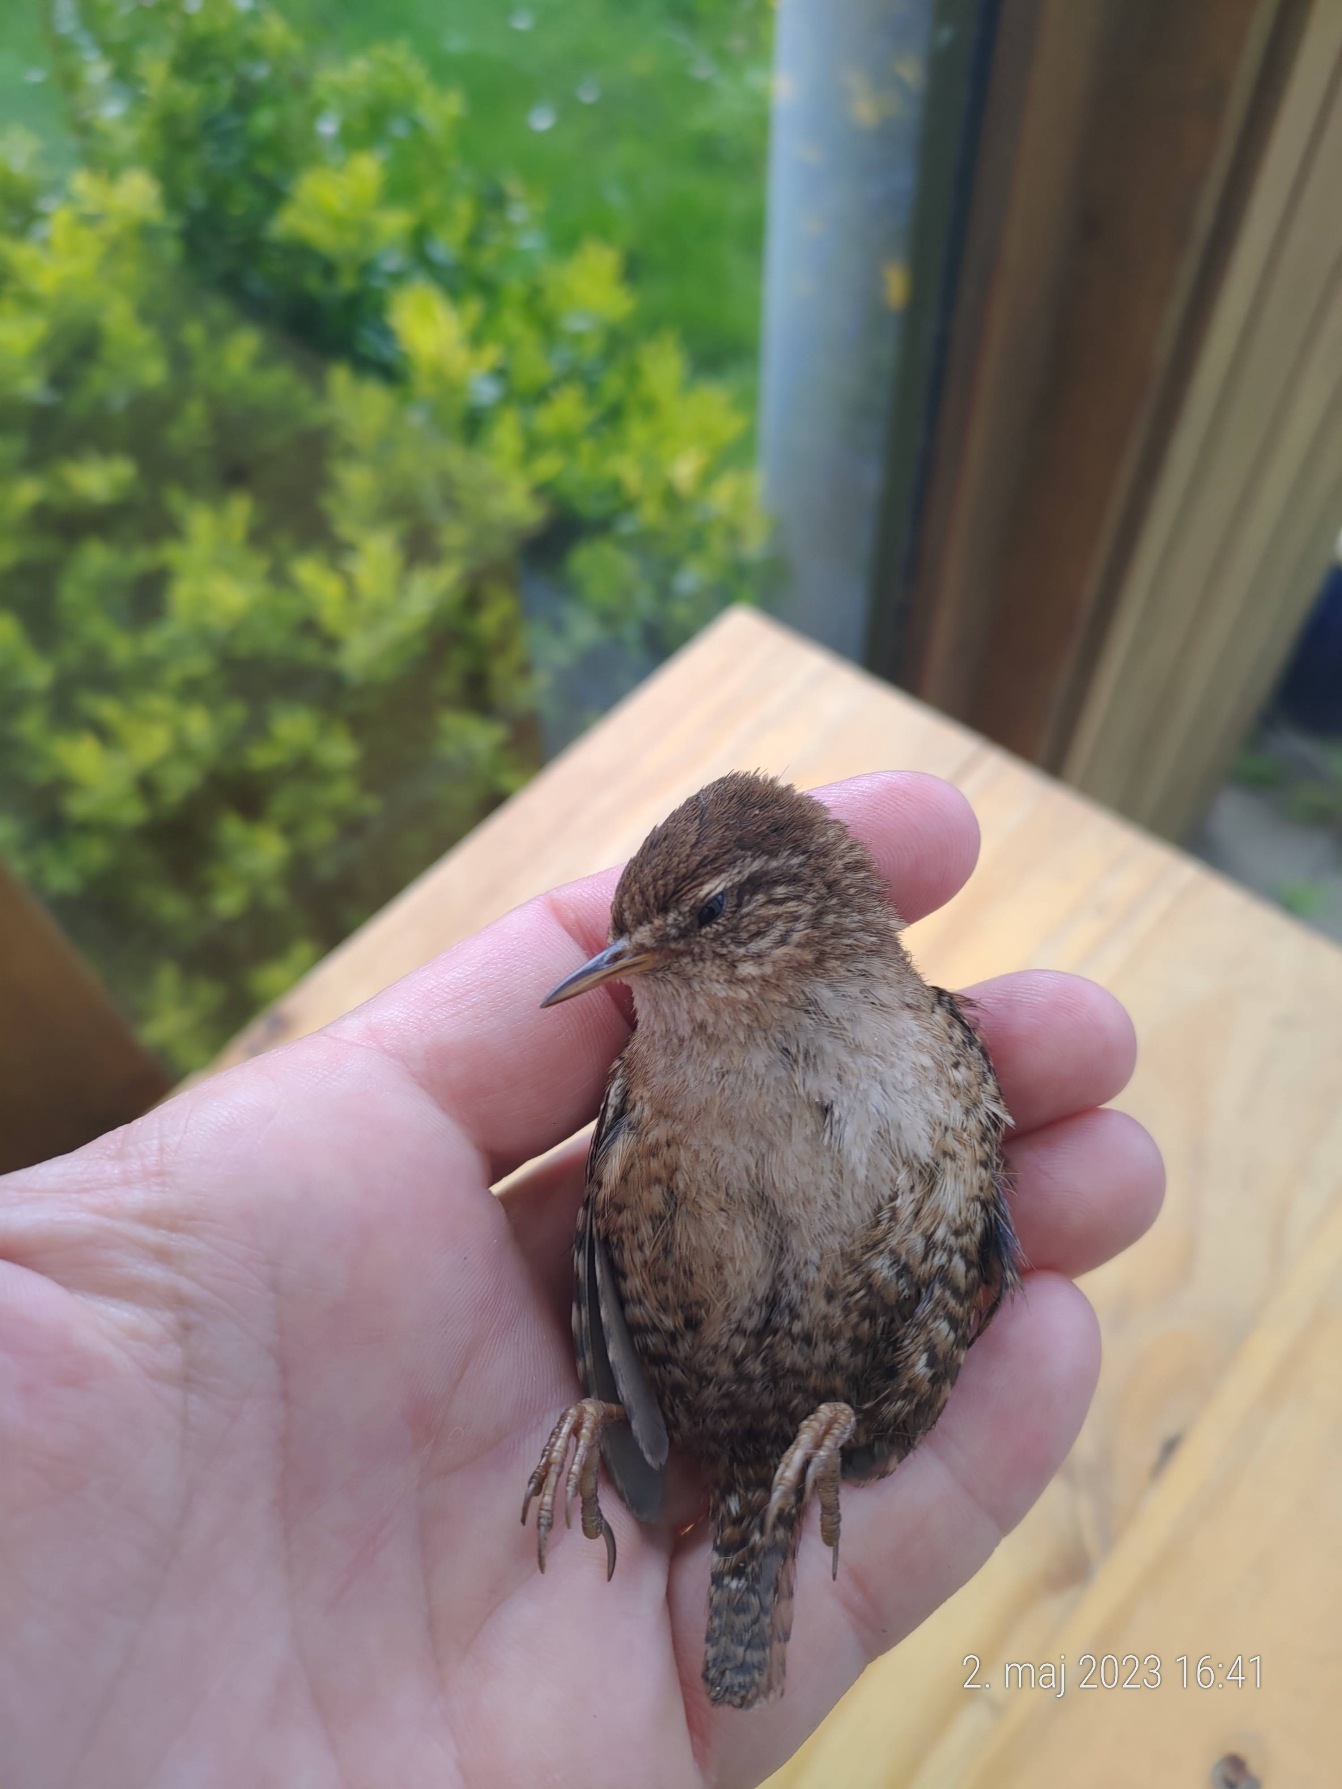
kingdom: Animalia
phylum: Chordata
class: Aves
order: Passeriformes
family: Troglodytidae
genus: Troglodytes
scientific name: Troglodytes troglodytes
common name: Gærdesmutte
